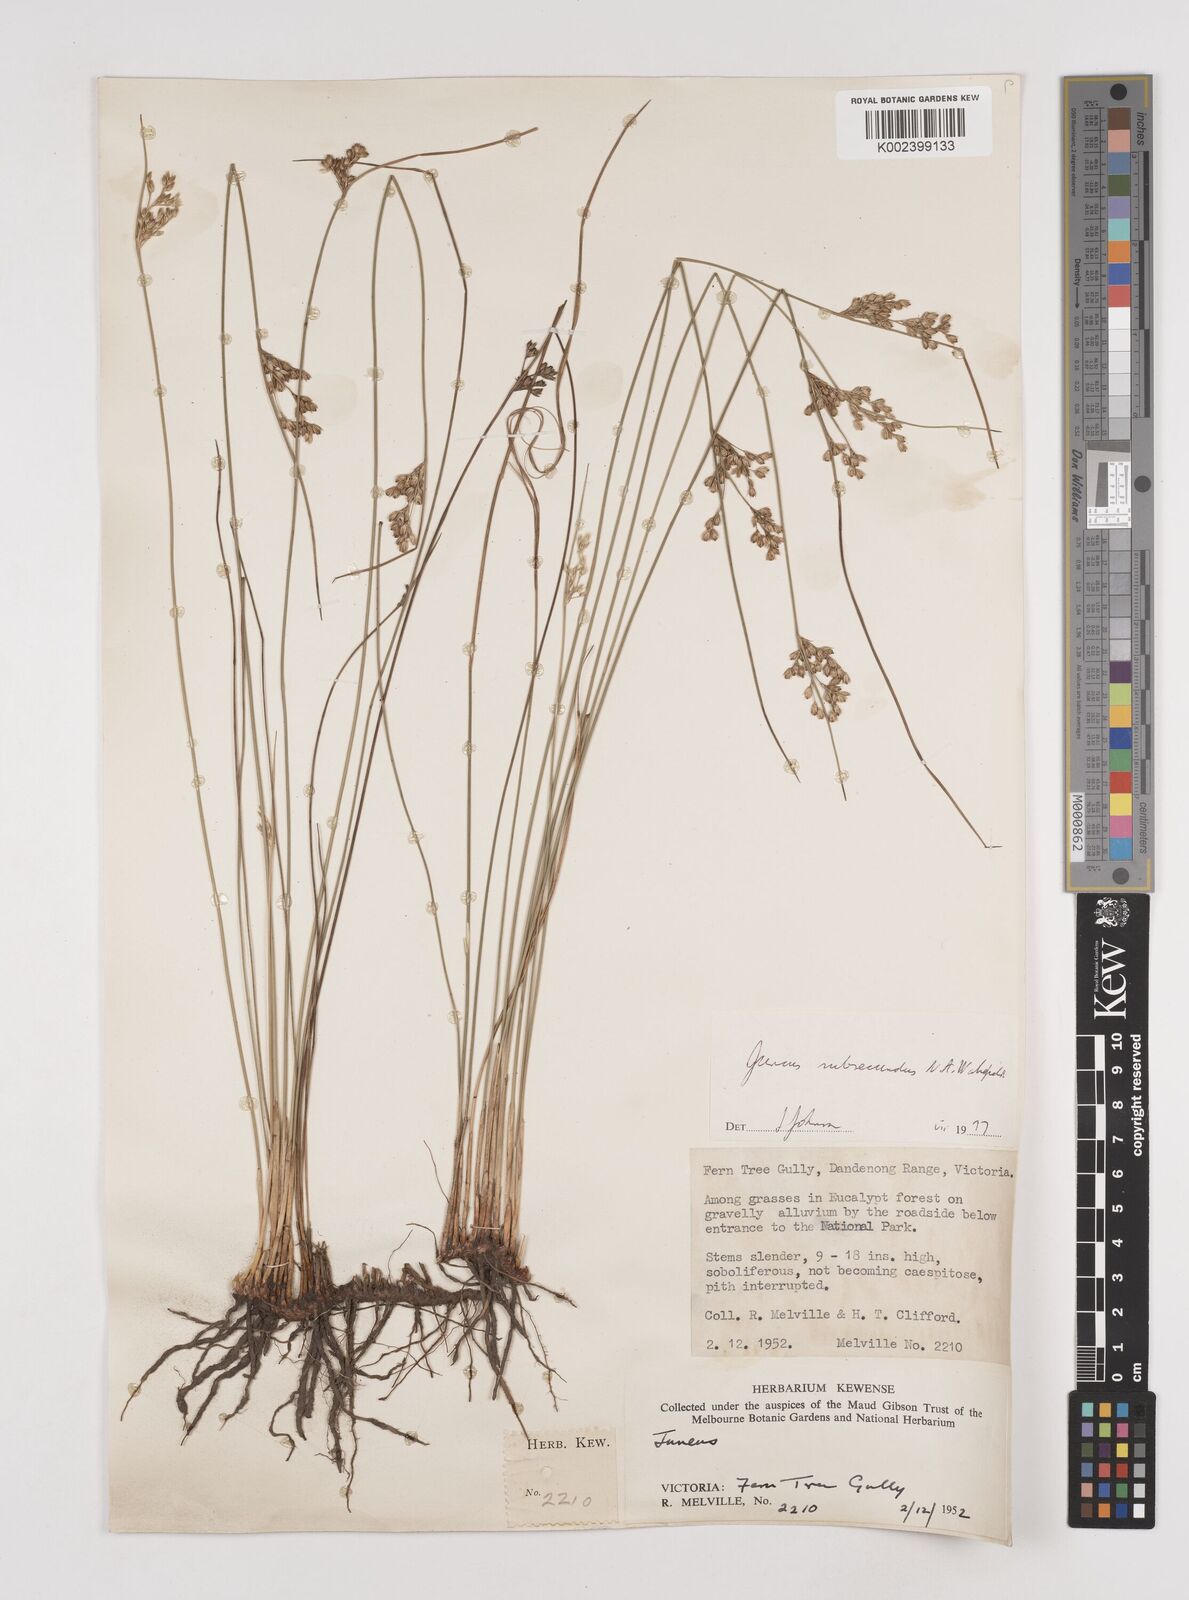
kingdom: Plantae
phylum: Tracheophyta
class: Liliopsida
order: Poales
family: Juncaceae
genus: Juncus
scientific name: Juncus subsecundus
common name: Fingered rush
